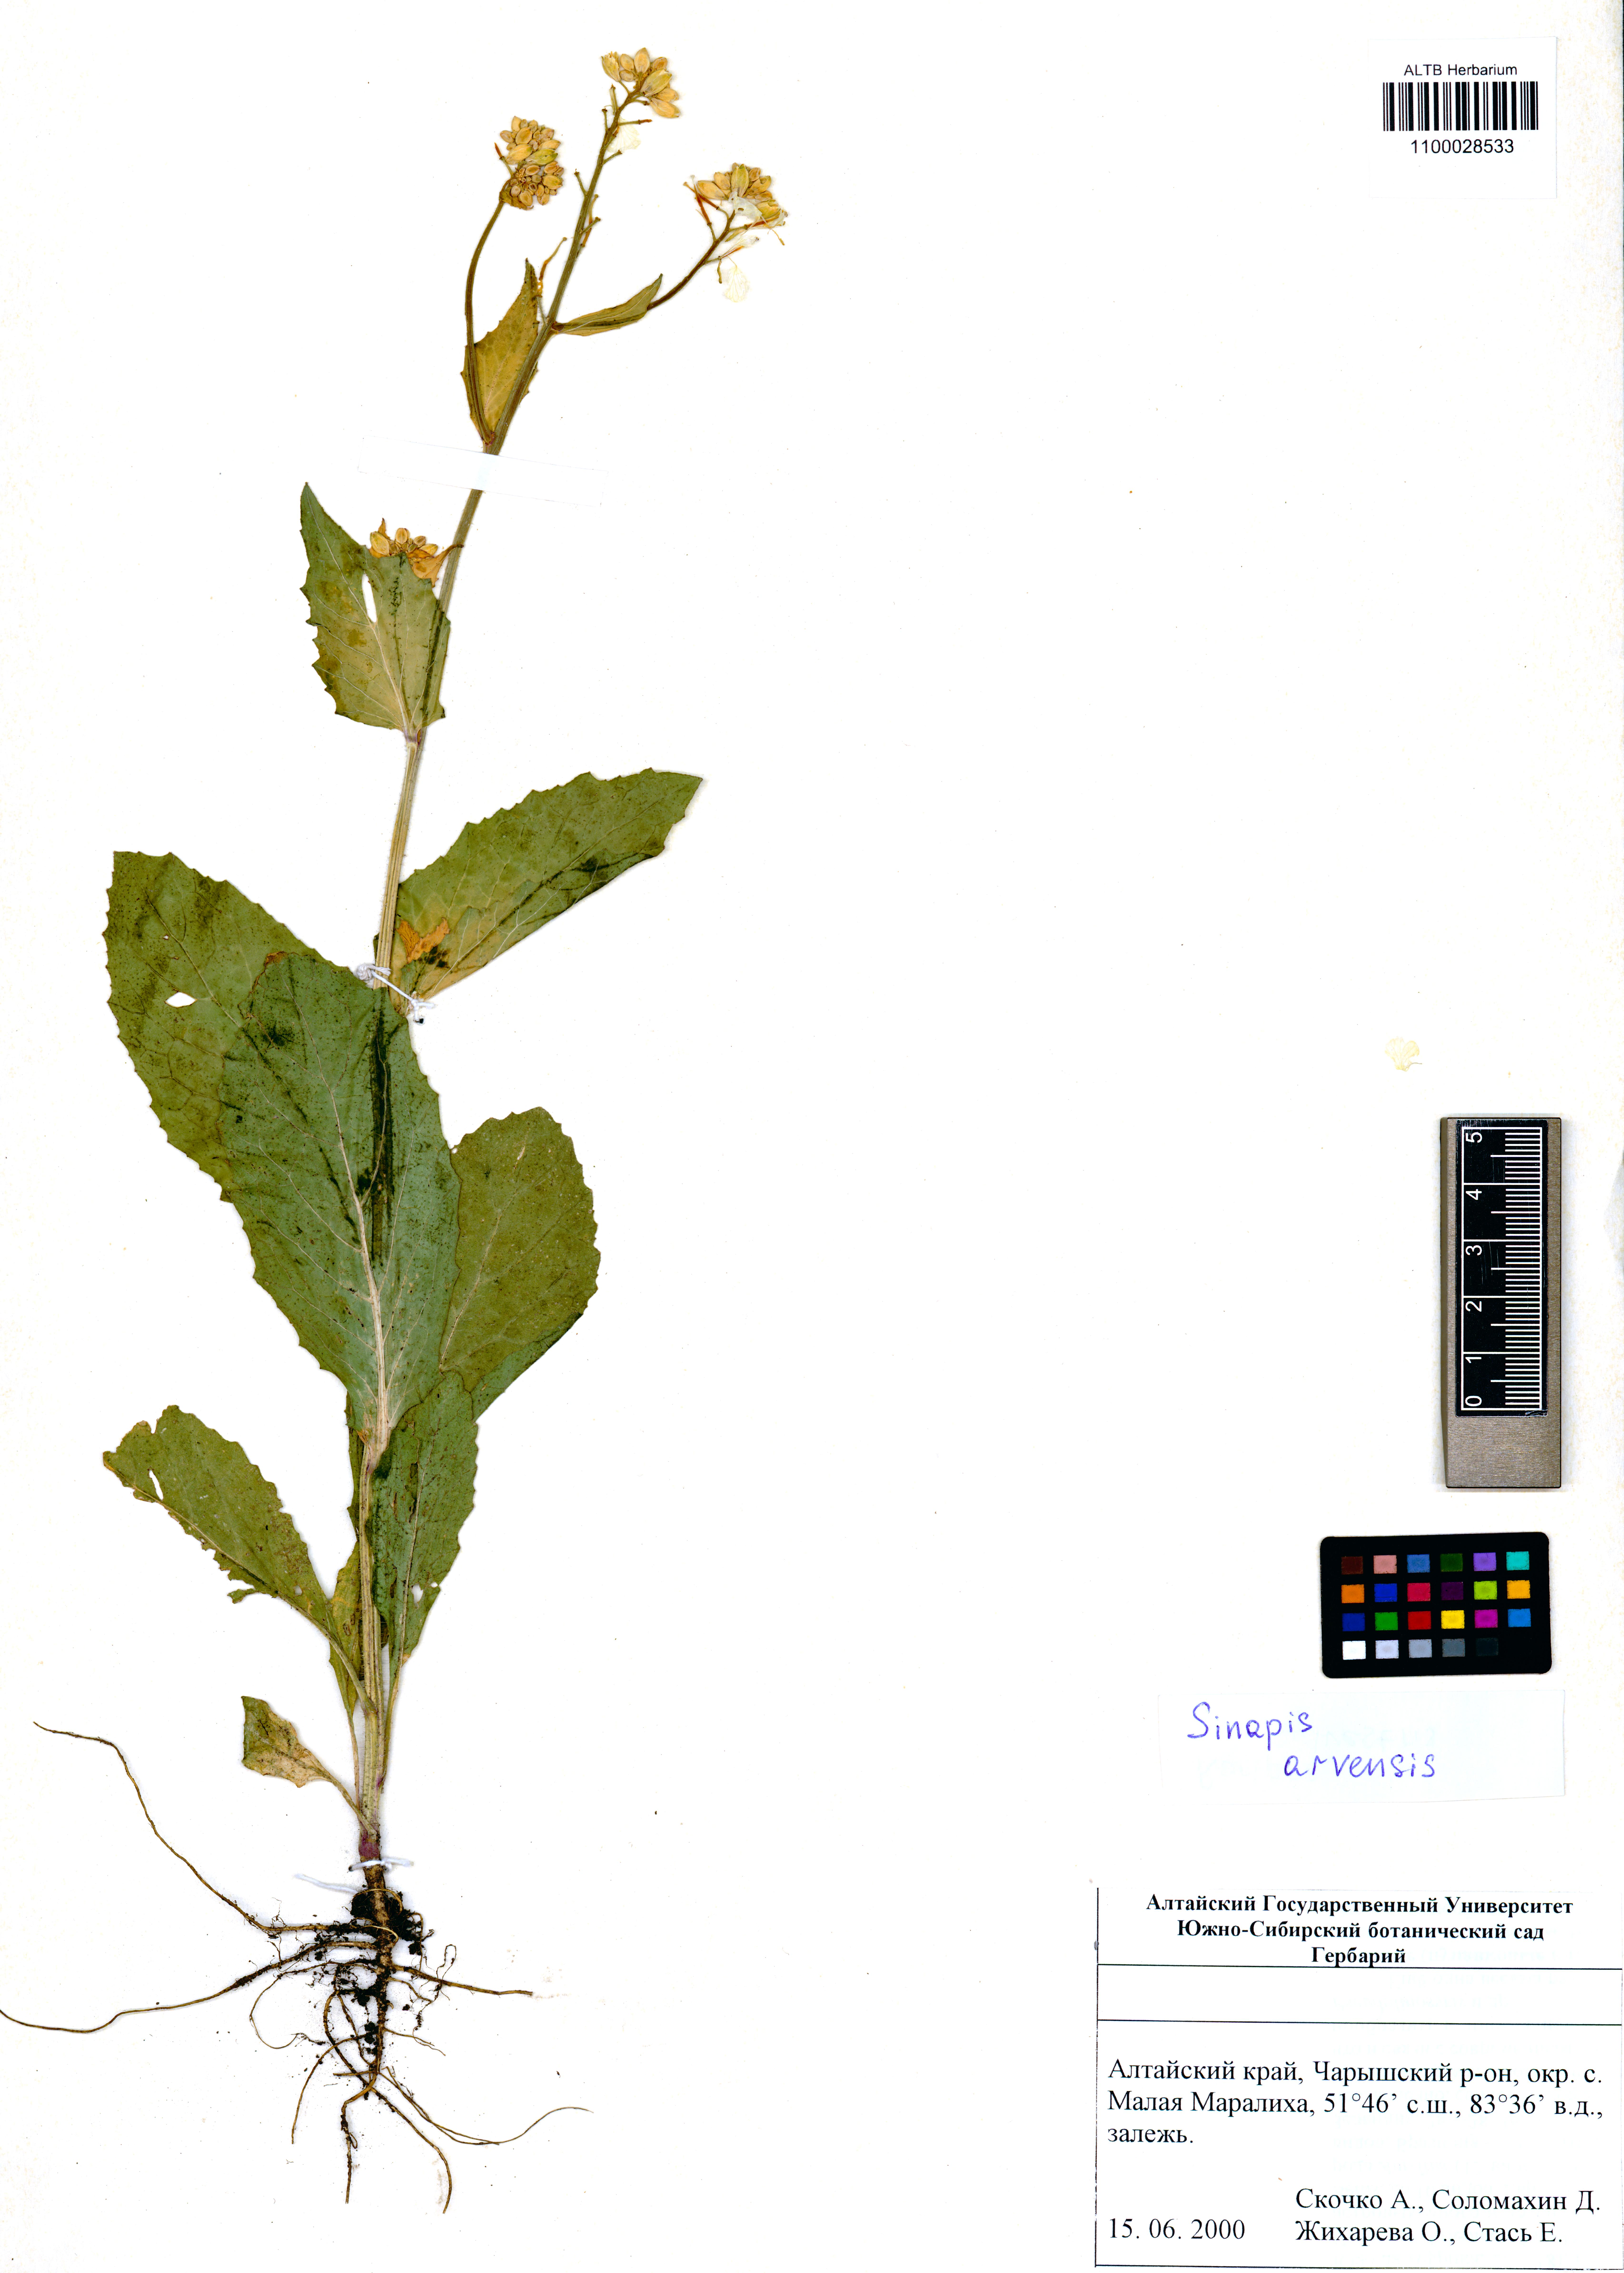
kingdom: Plantae
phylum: Tracheophyta
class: Magnoliopsida
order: Brassicales
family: Brassicaceae
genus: Sinapis
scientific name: Sinapis arvensis
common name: Charlock
